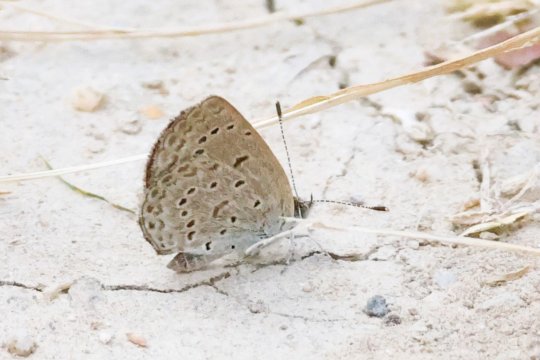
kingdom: Animalia
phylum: Arthropoda
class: Insecta
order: Lepidoptera
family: Lycaenidae
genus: Zizeeria
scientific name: Zizeeria knysna
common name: Dark Grass Blue
